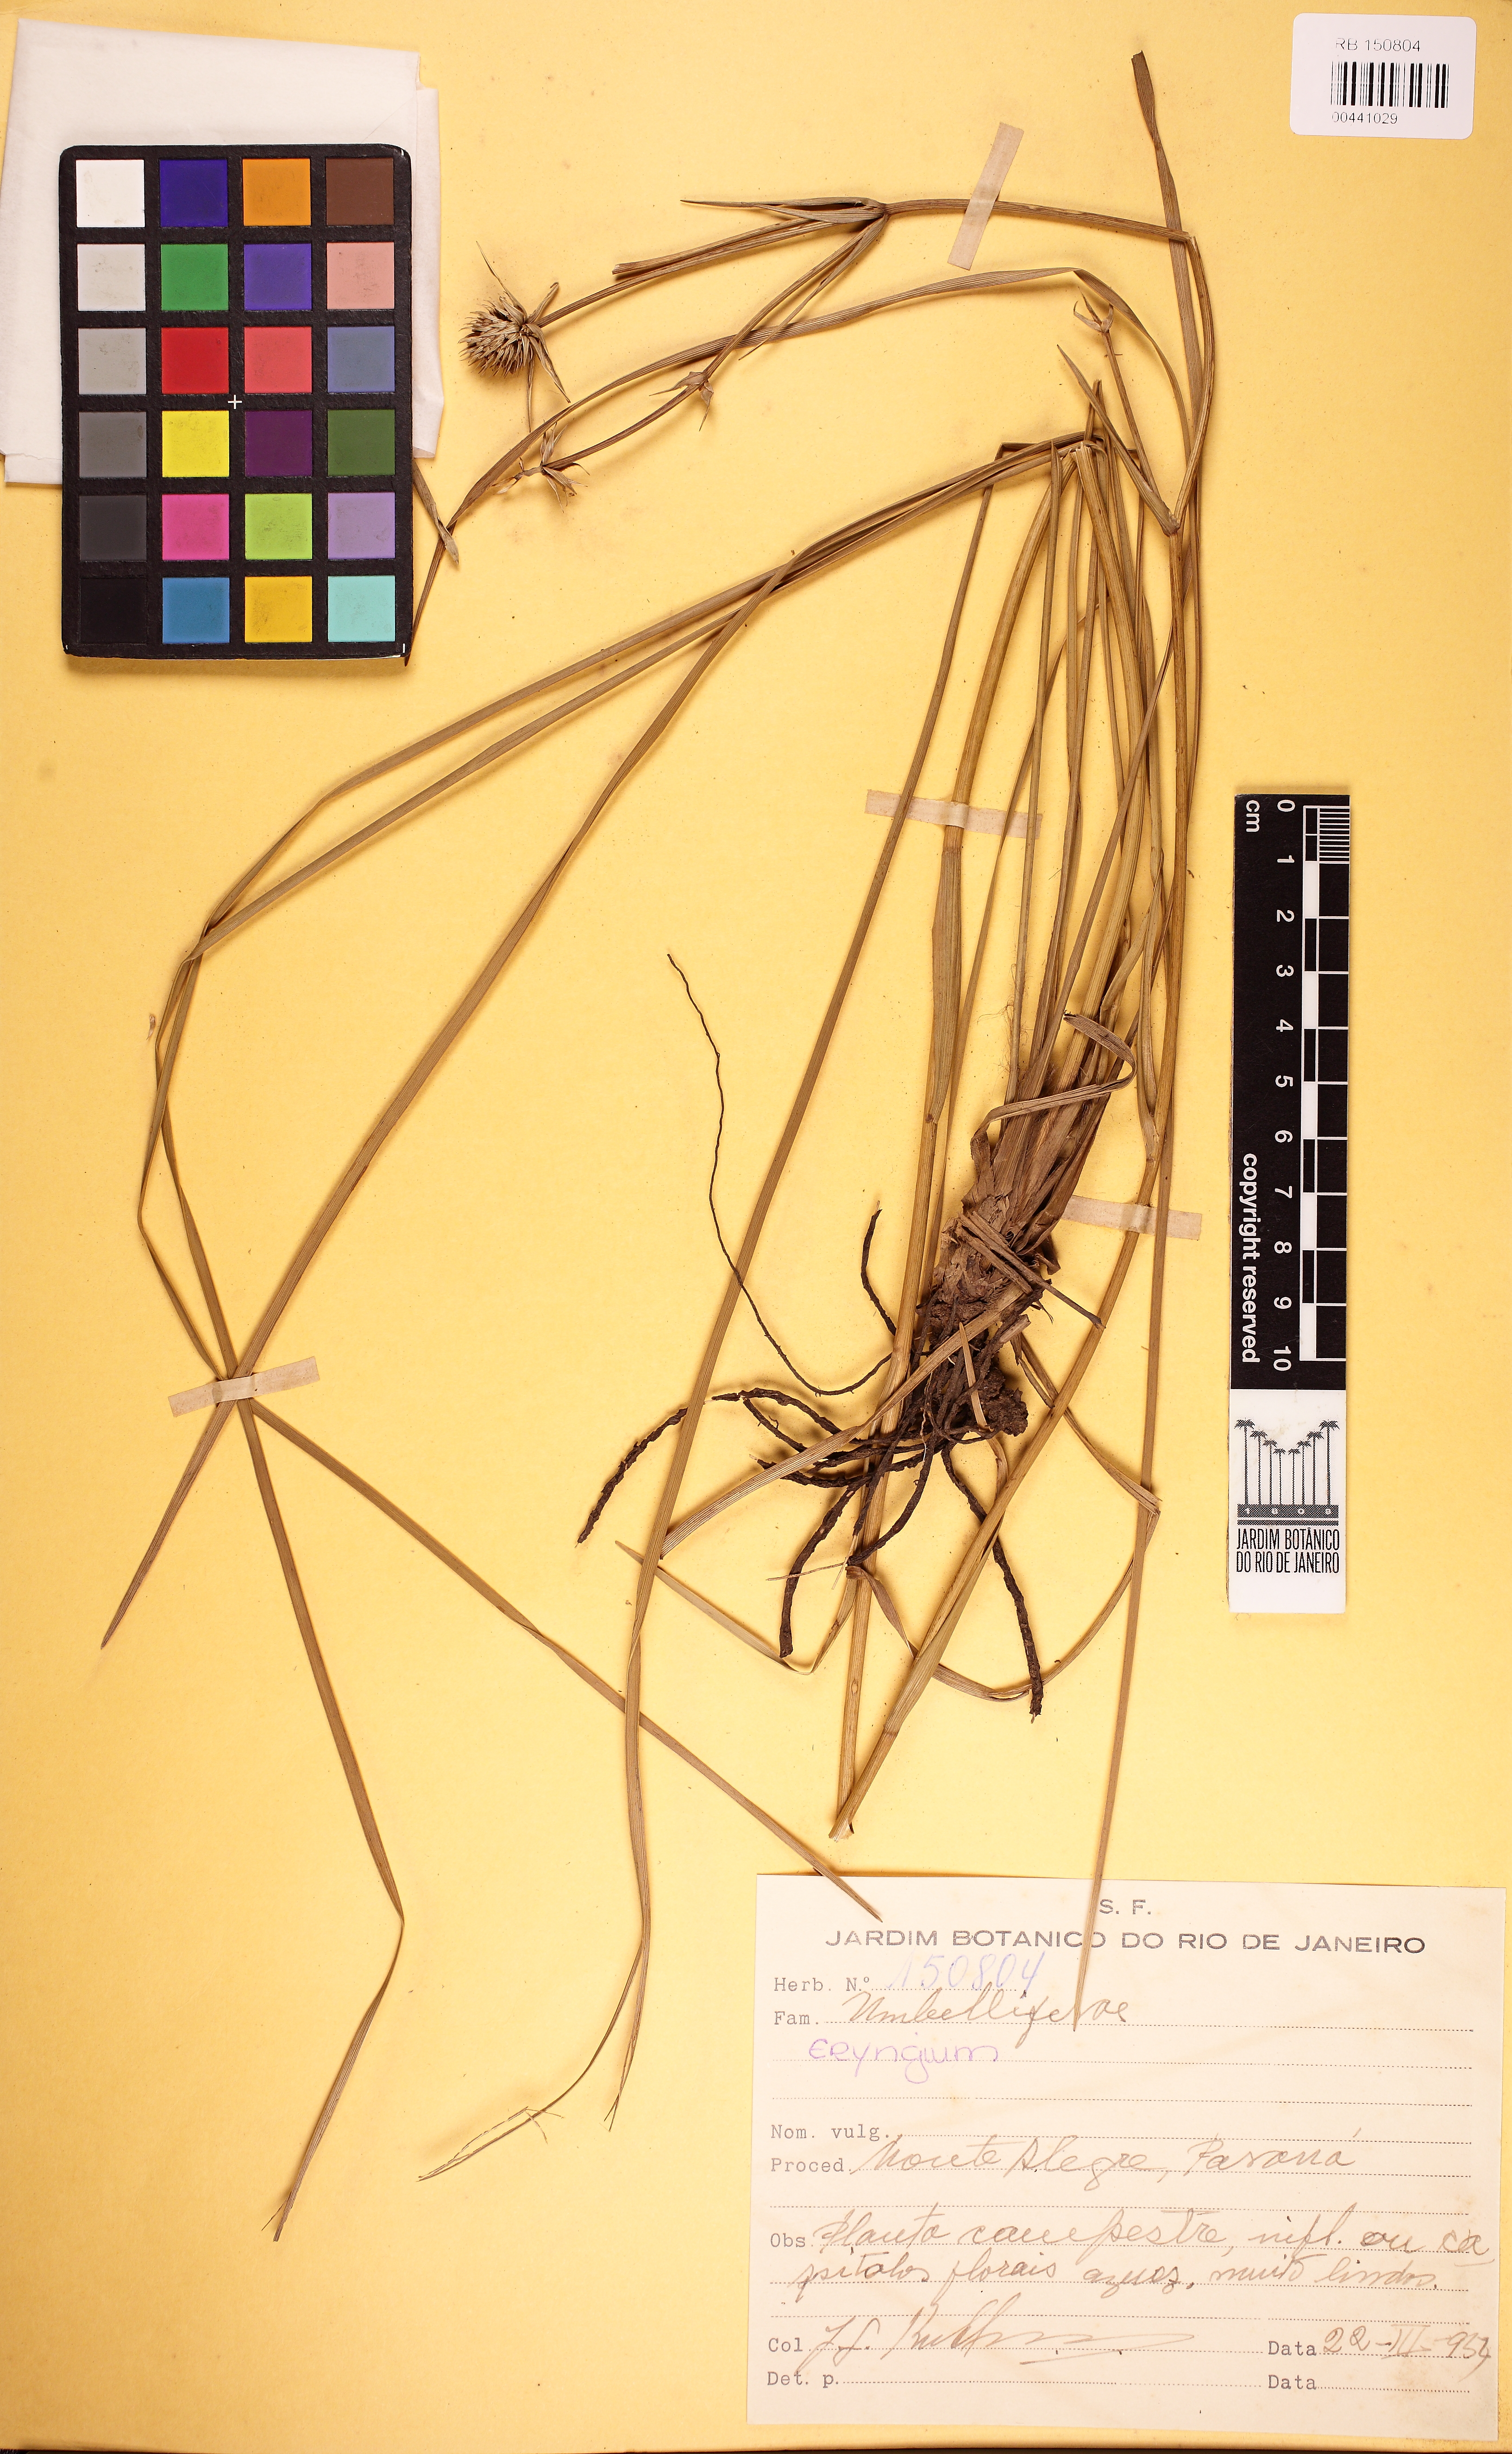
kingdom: Plantae
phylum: Tracheophyta
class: Magnoliopsida
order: Apiales
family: Apiaceae
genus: Eryngium
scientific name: Eryngium eriophorum
